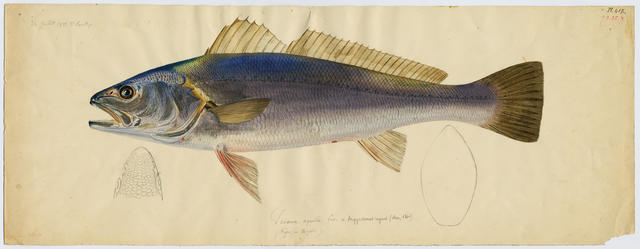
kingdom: Animalia
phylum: Chordata
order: Perciformes
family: Sciaenidae
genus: Argyrosomus
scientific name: Argyrosomus regius
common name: Meagre
